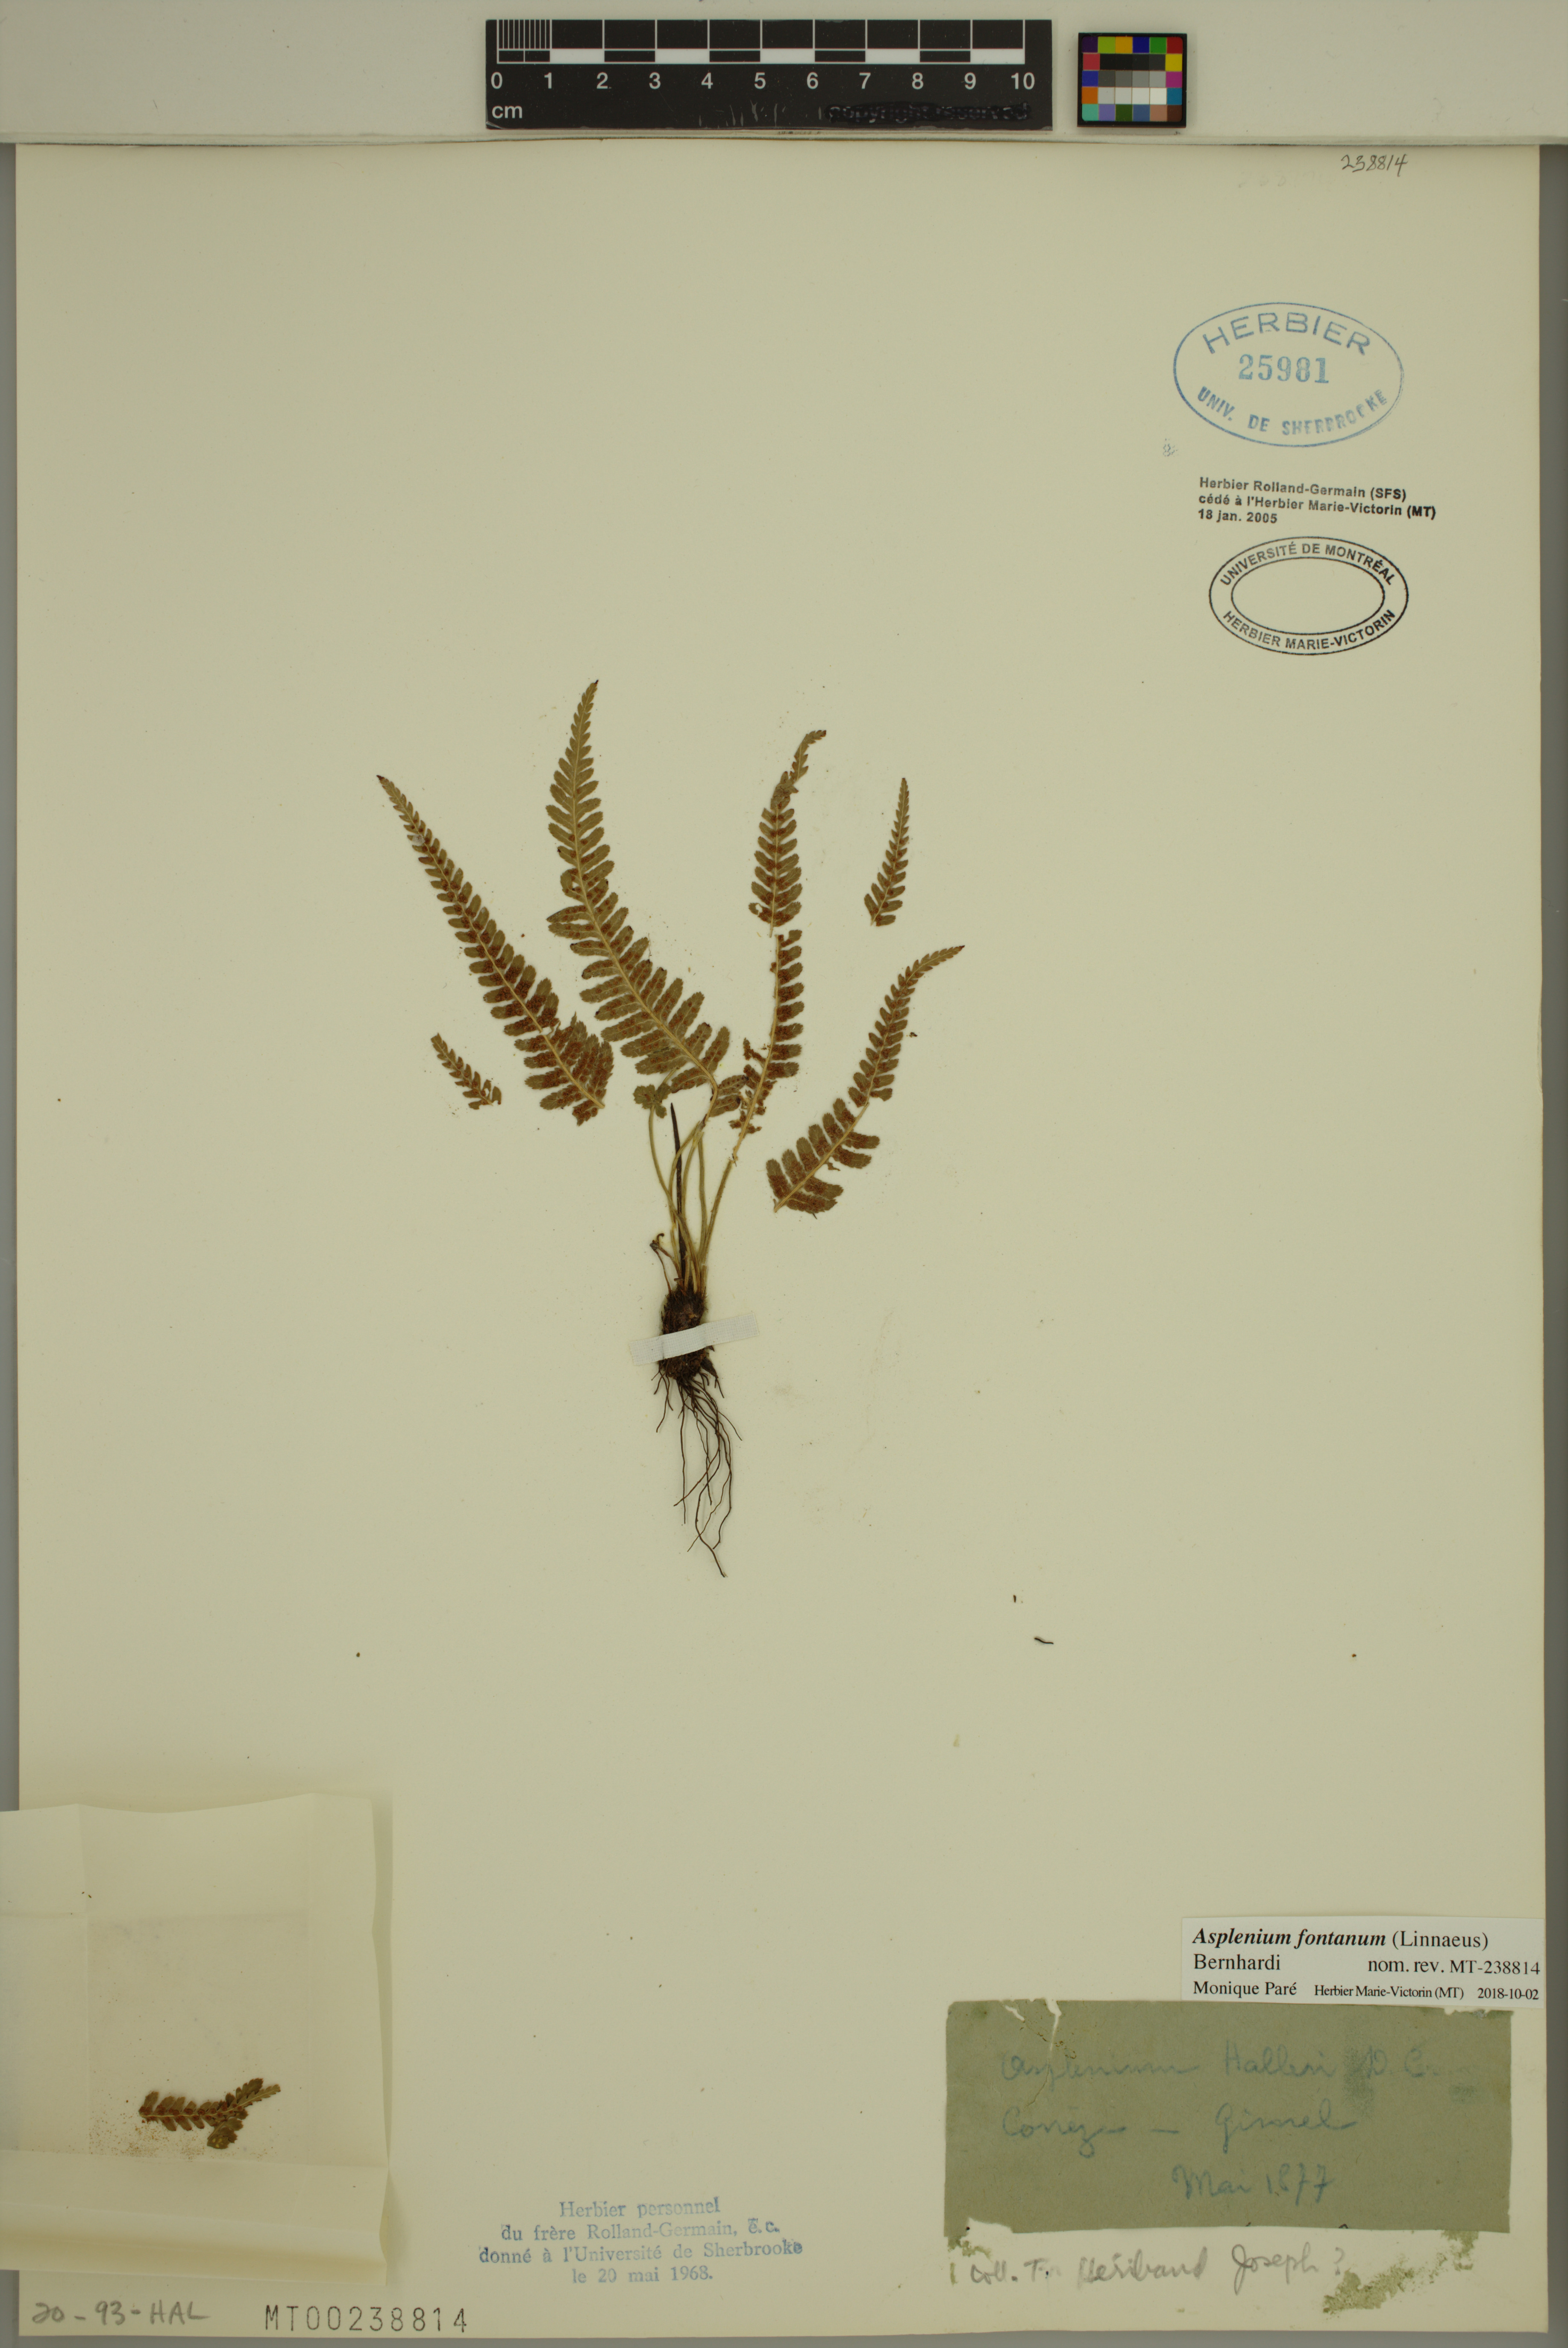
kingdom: Plantae
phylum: Tracheophyta
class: Polypodiopsida
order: Polypodiales
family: Aspleniaceae
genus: Asplenium
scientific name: Asplenium fontanum
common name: Fountain spleenwort
